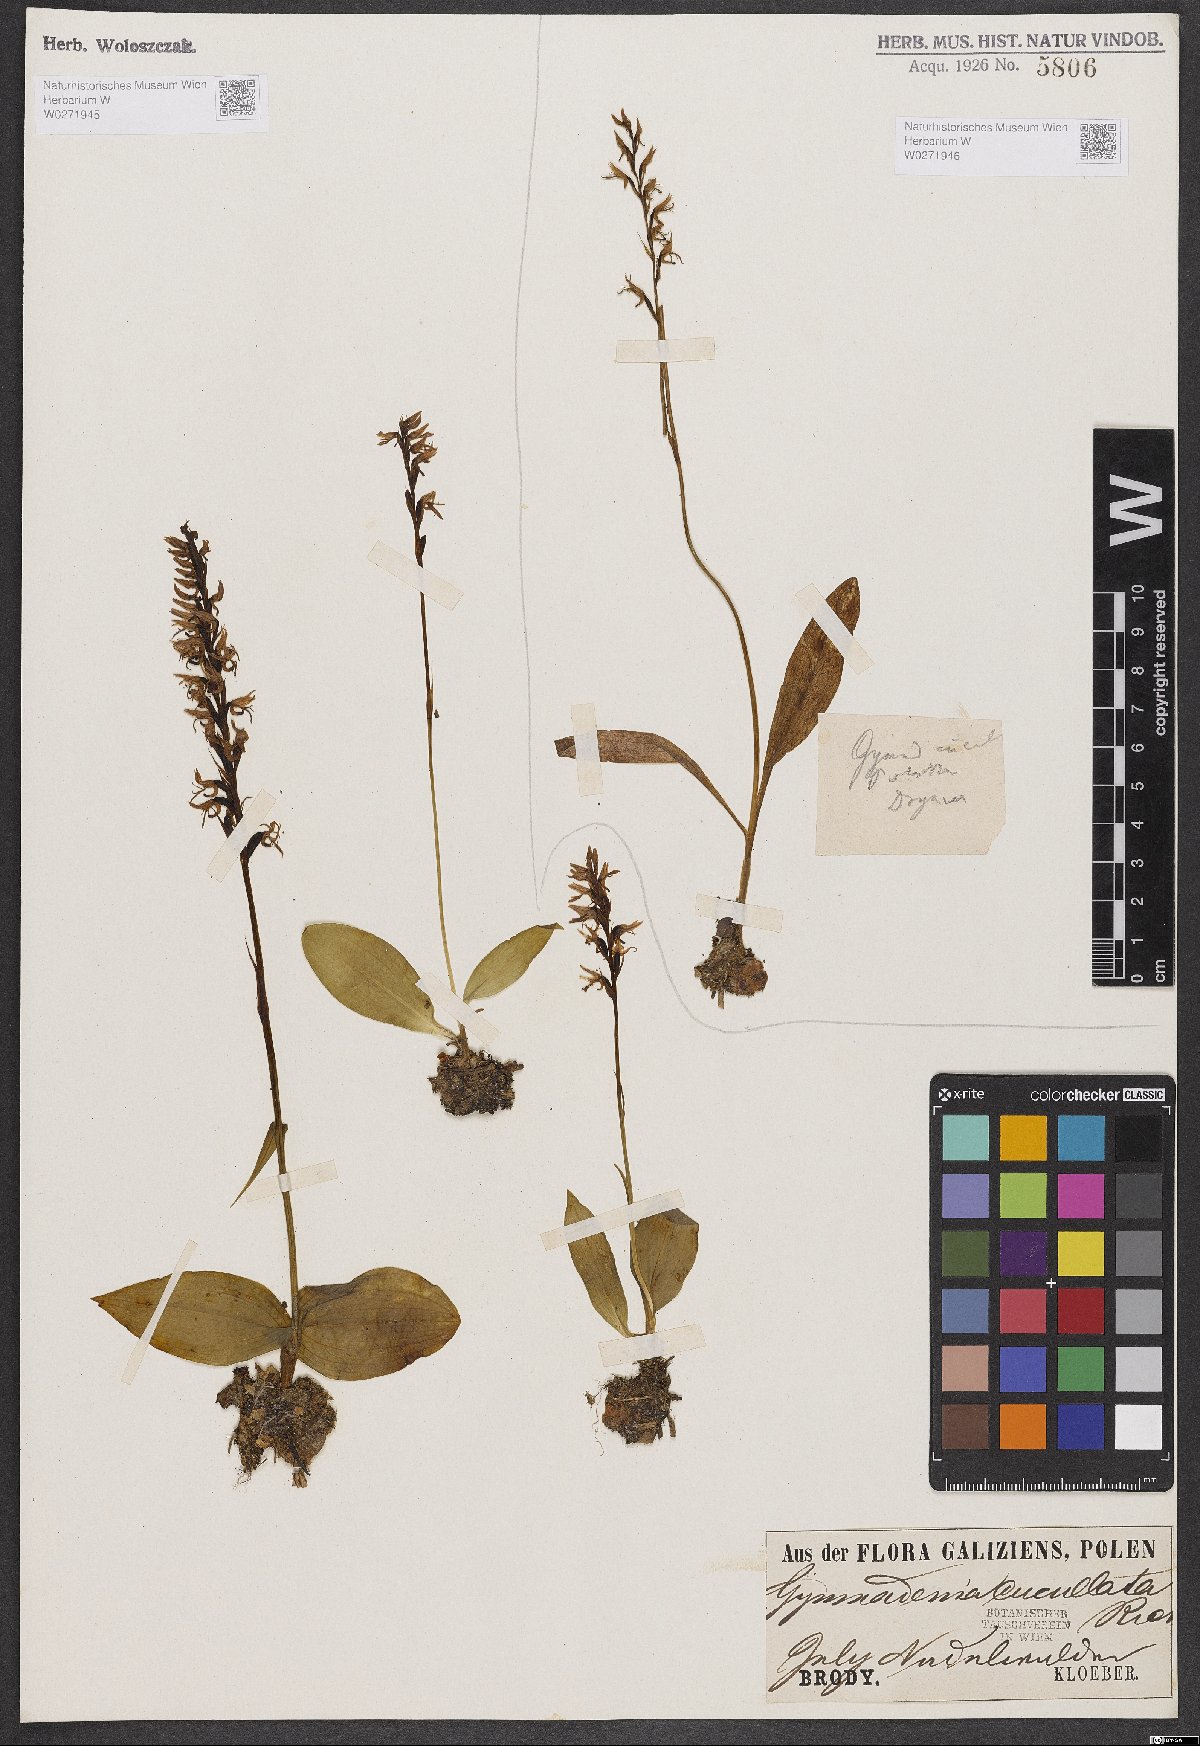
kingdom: Plantae
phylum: Tracheophyta
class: Liliopsida
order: Asparagales
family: Orchidaceae
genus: Hemipilia
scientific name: Hemipilia cucullata
